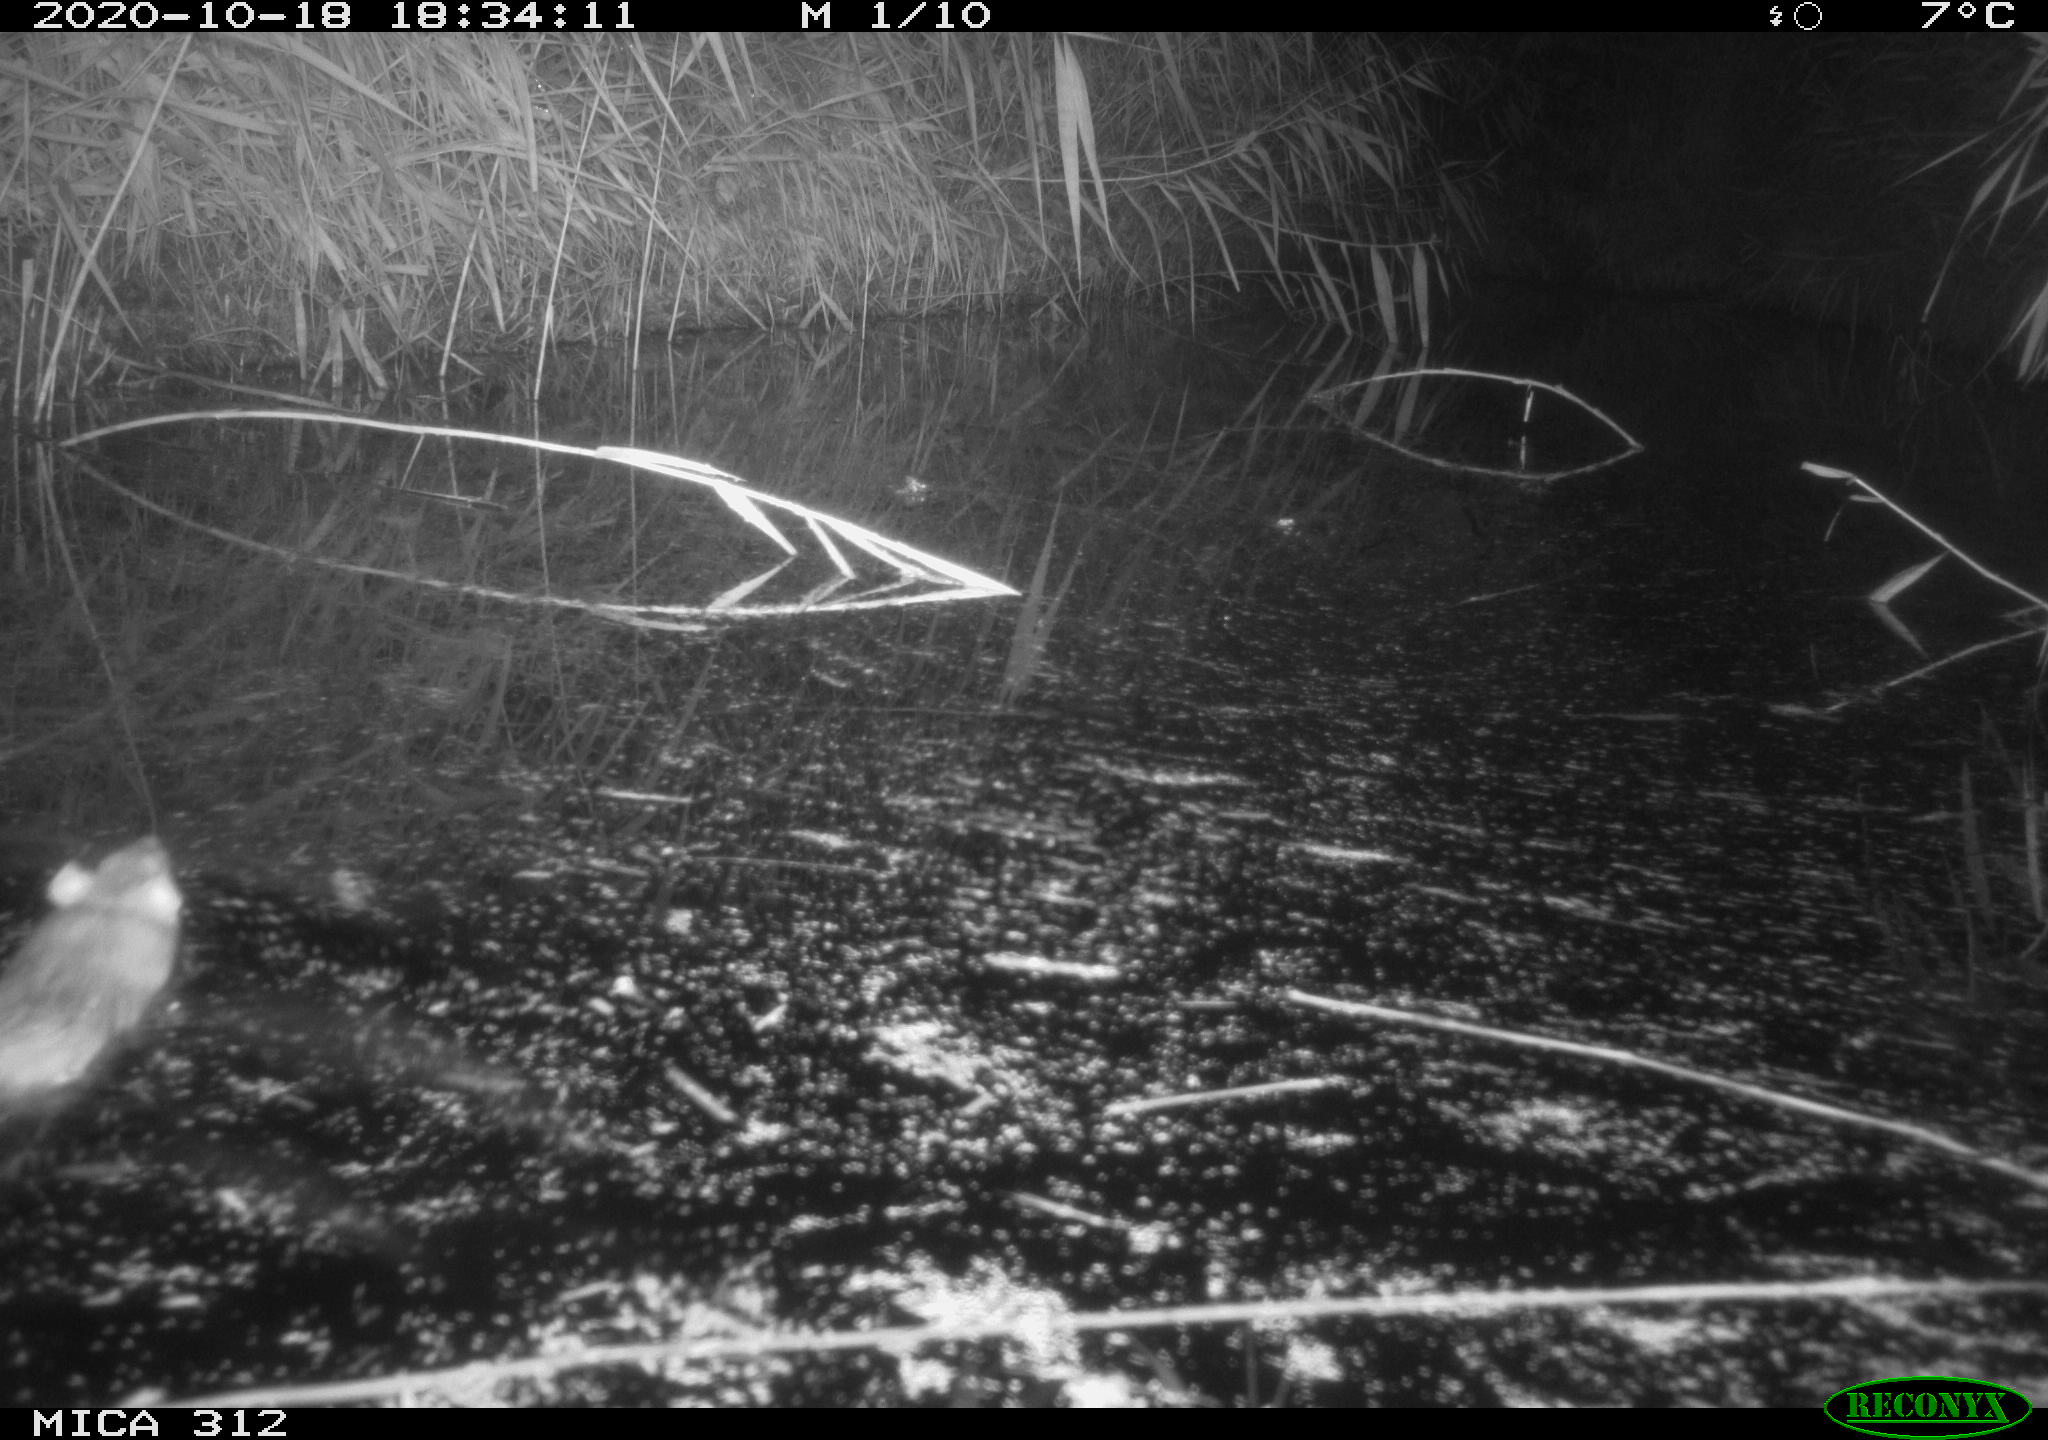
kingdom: Animalia
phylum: Chordata
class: Mammalia
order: Rodentia
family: Muridae
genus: Rattus
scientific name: Rattus norvegicus
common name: Brown rat
